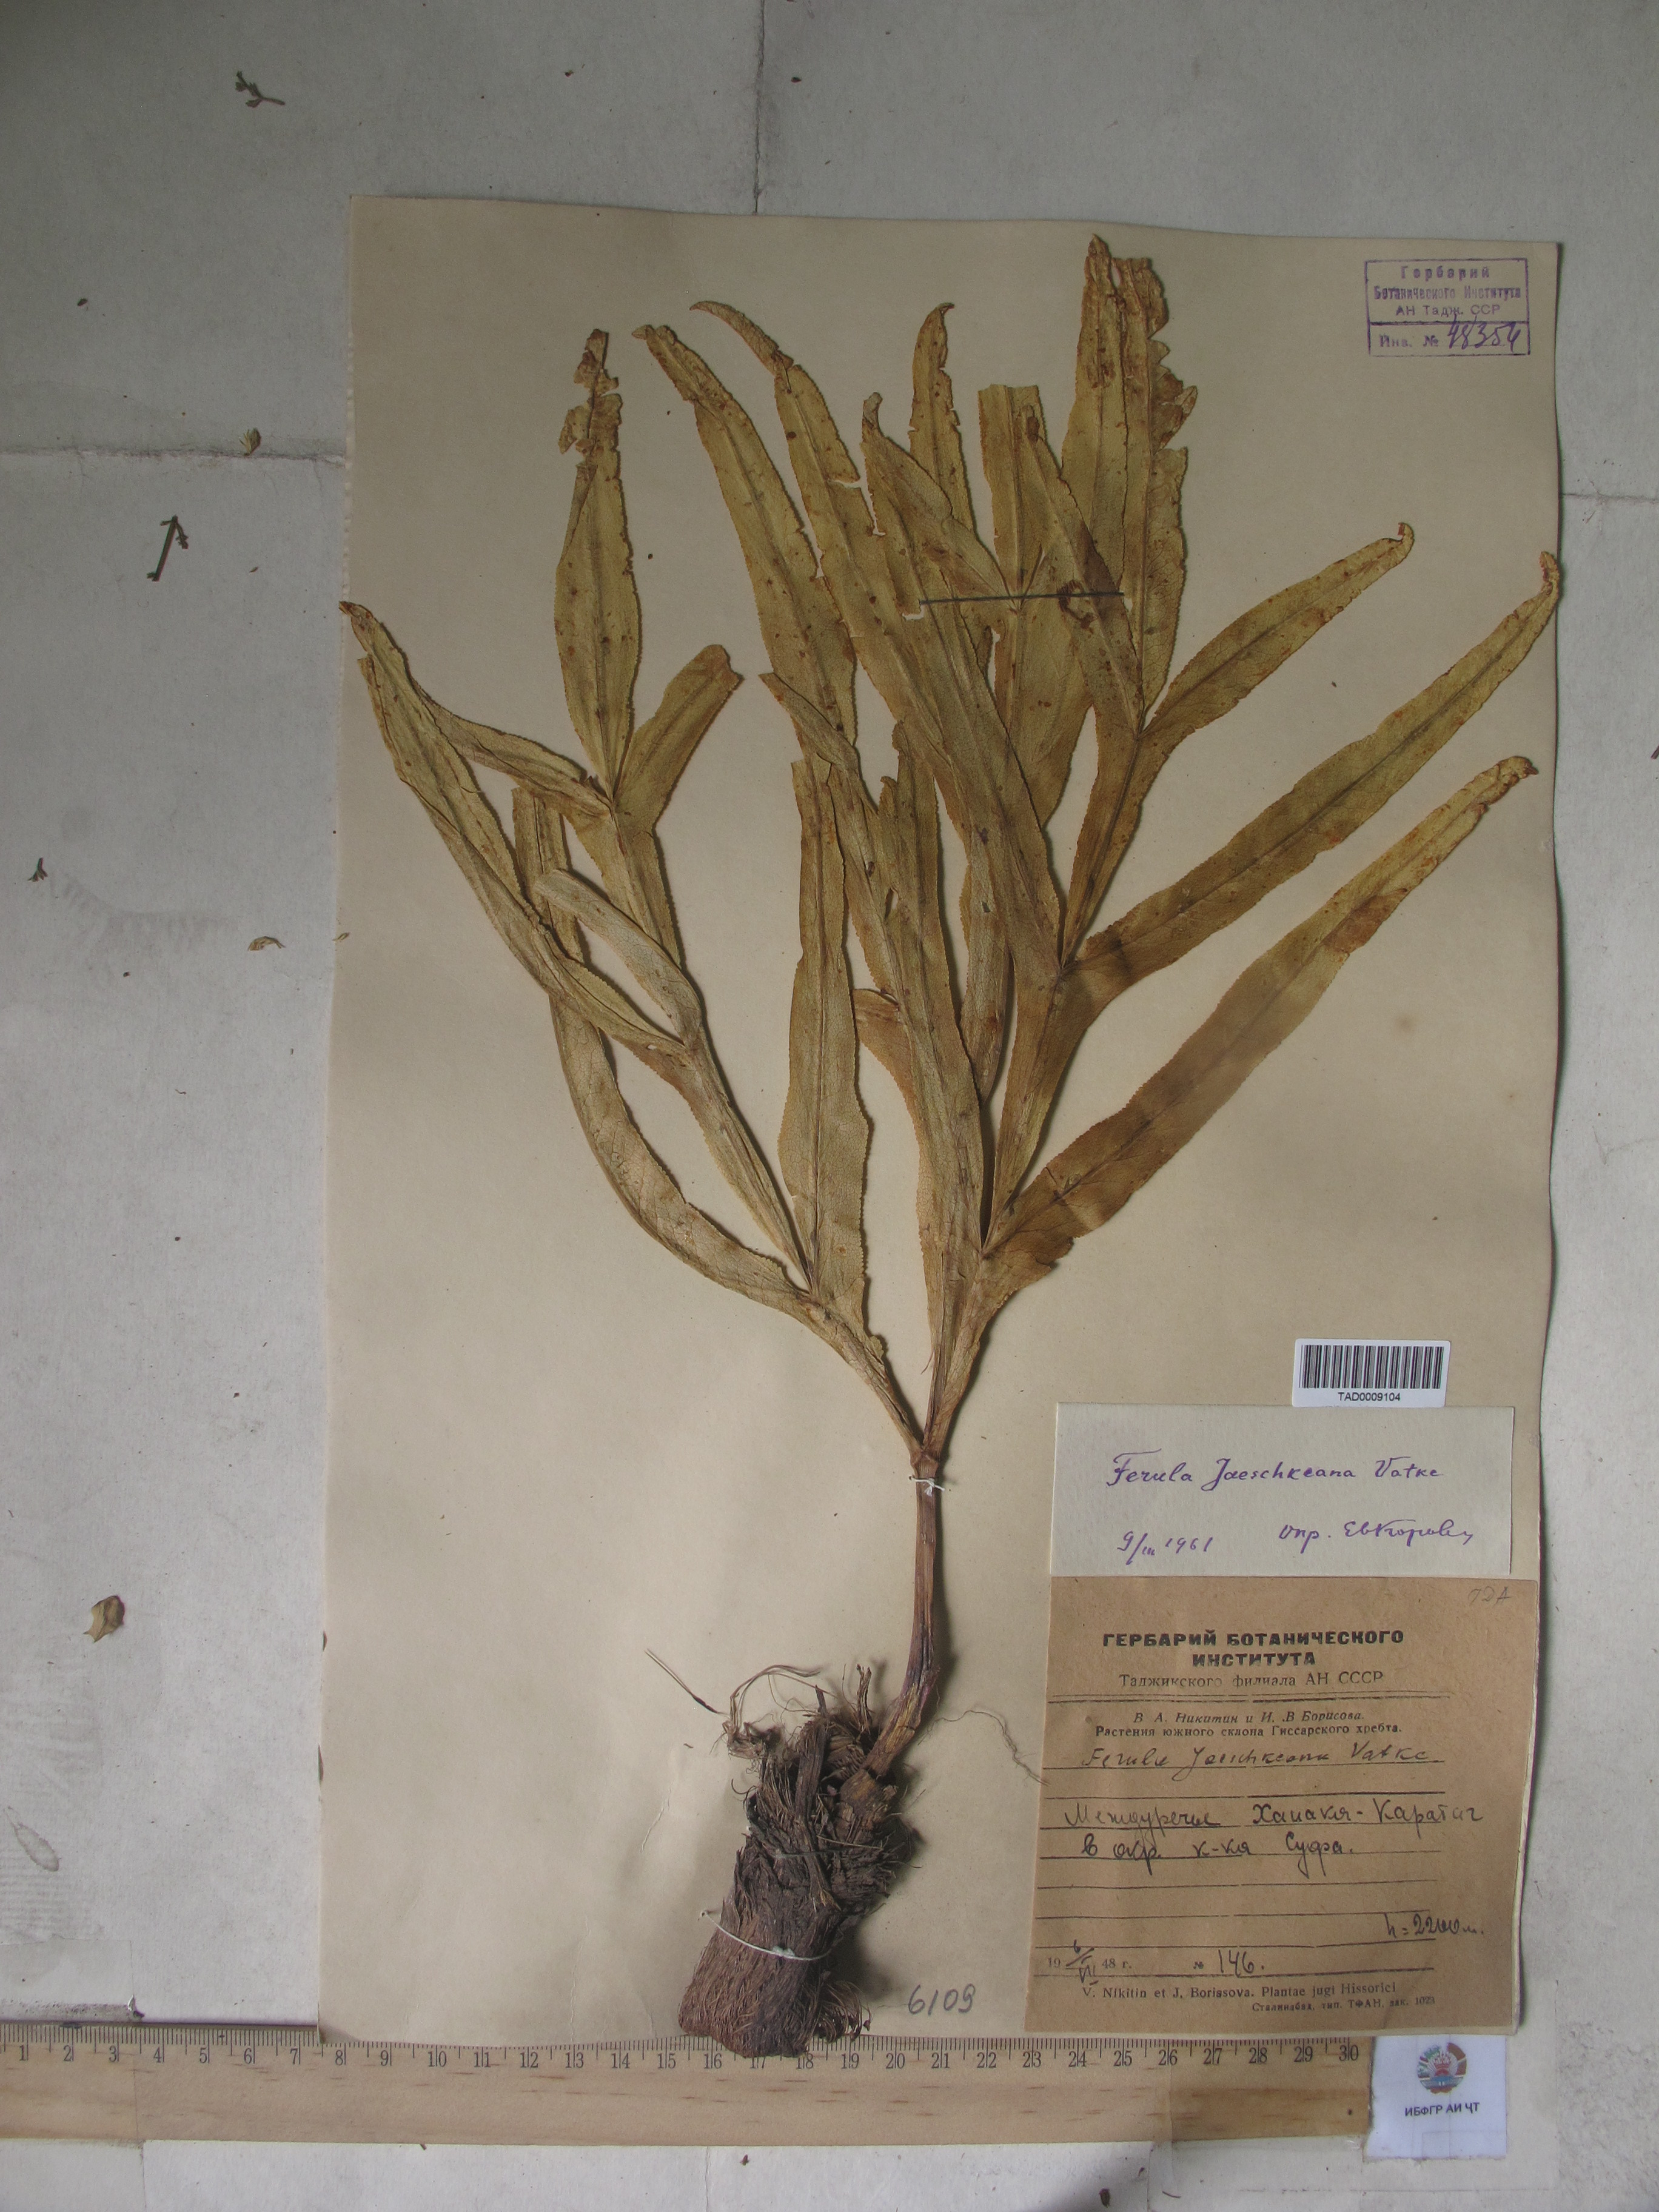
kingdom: Plantae
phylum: Tracheophyta
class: Magnoliopsida
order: Apiales
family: Apiaceae
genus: Ferula
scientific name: Ferula jaeschkeana
